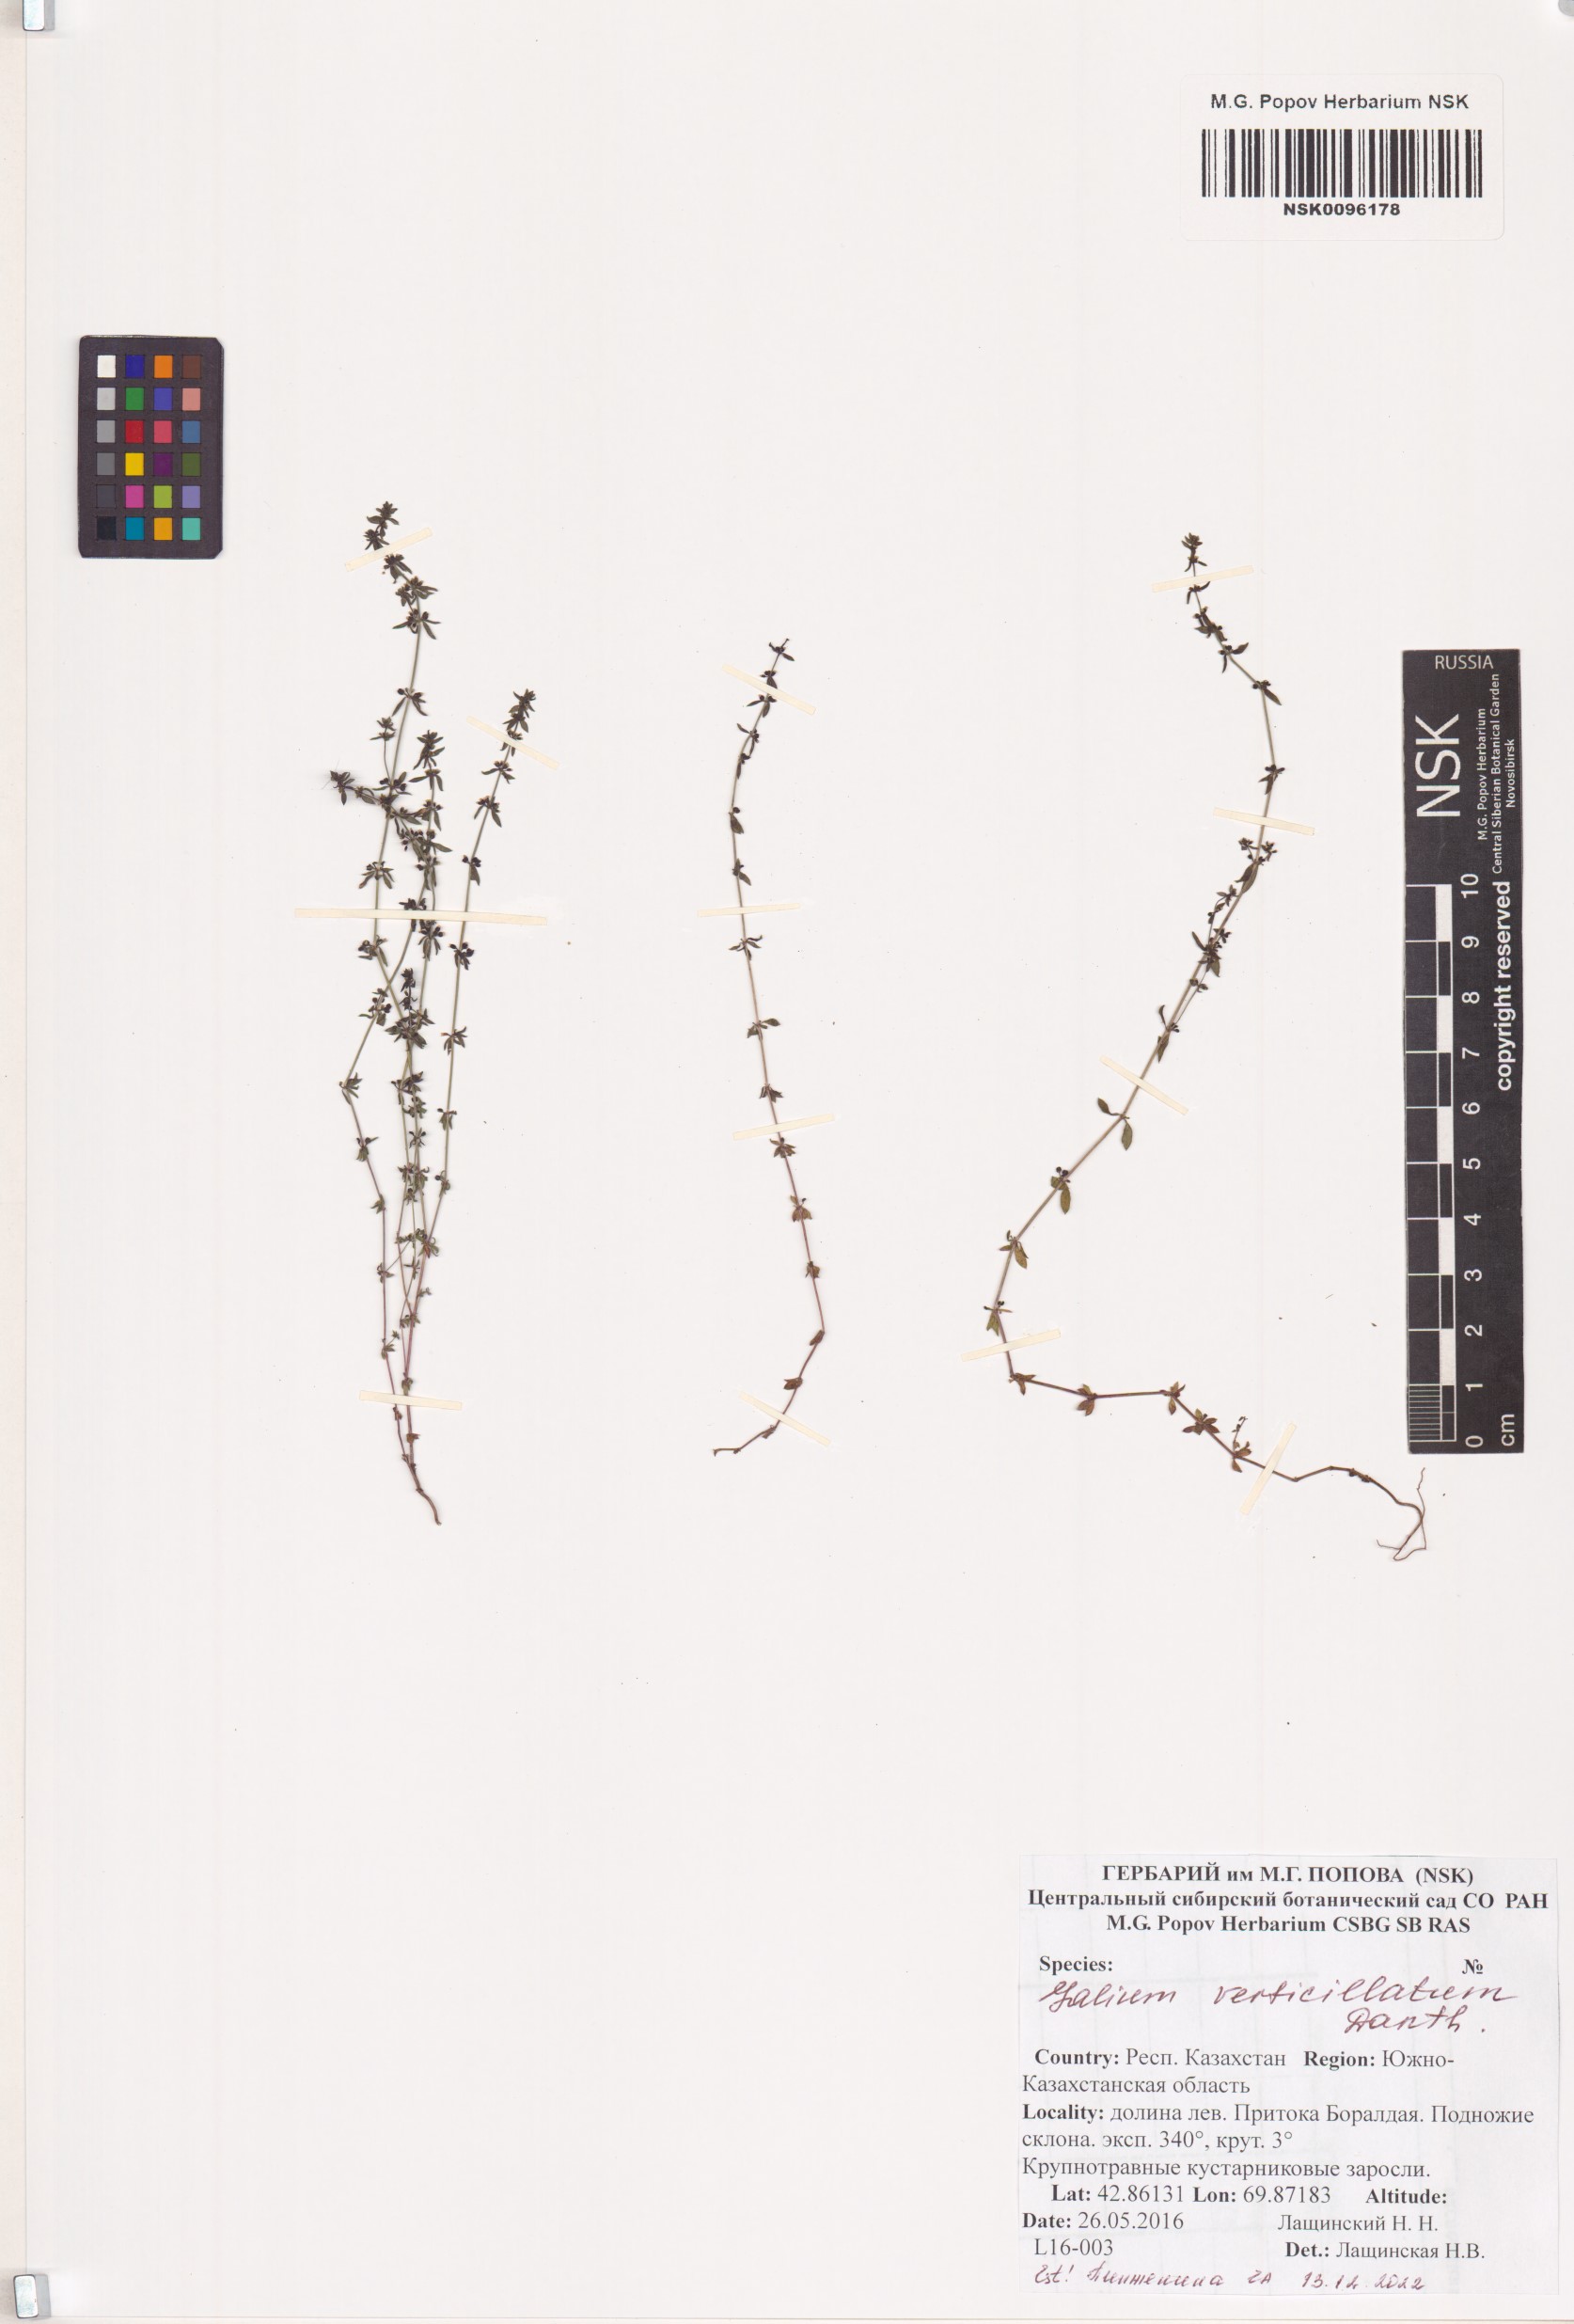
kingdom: Plantae
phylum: Tracheophyta
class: Magnoliopsida
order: Gentianales
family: Rubiaceae
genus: Galium
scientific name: Galium verticillatum
